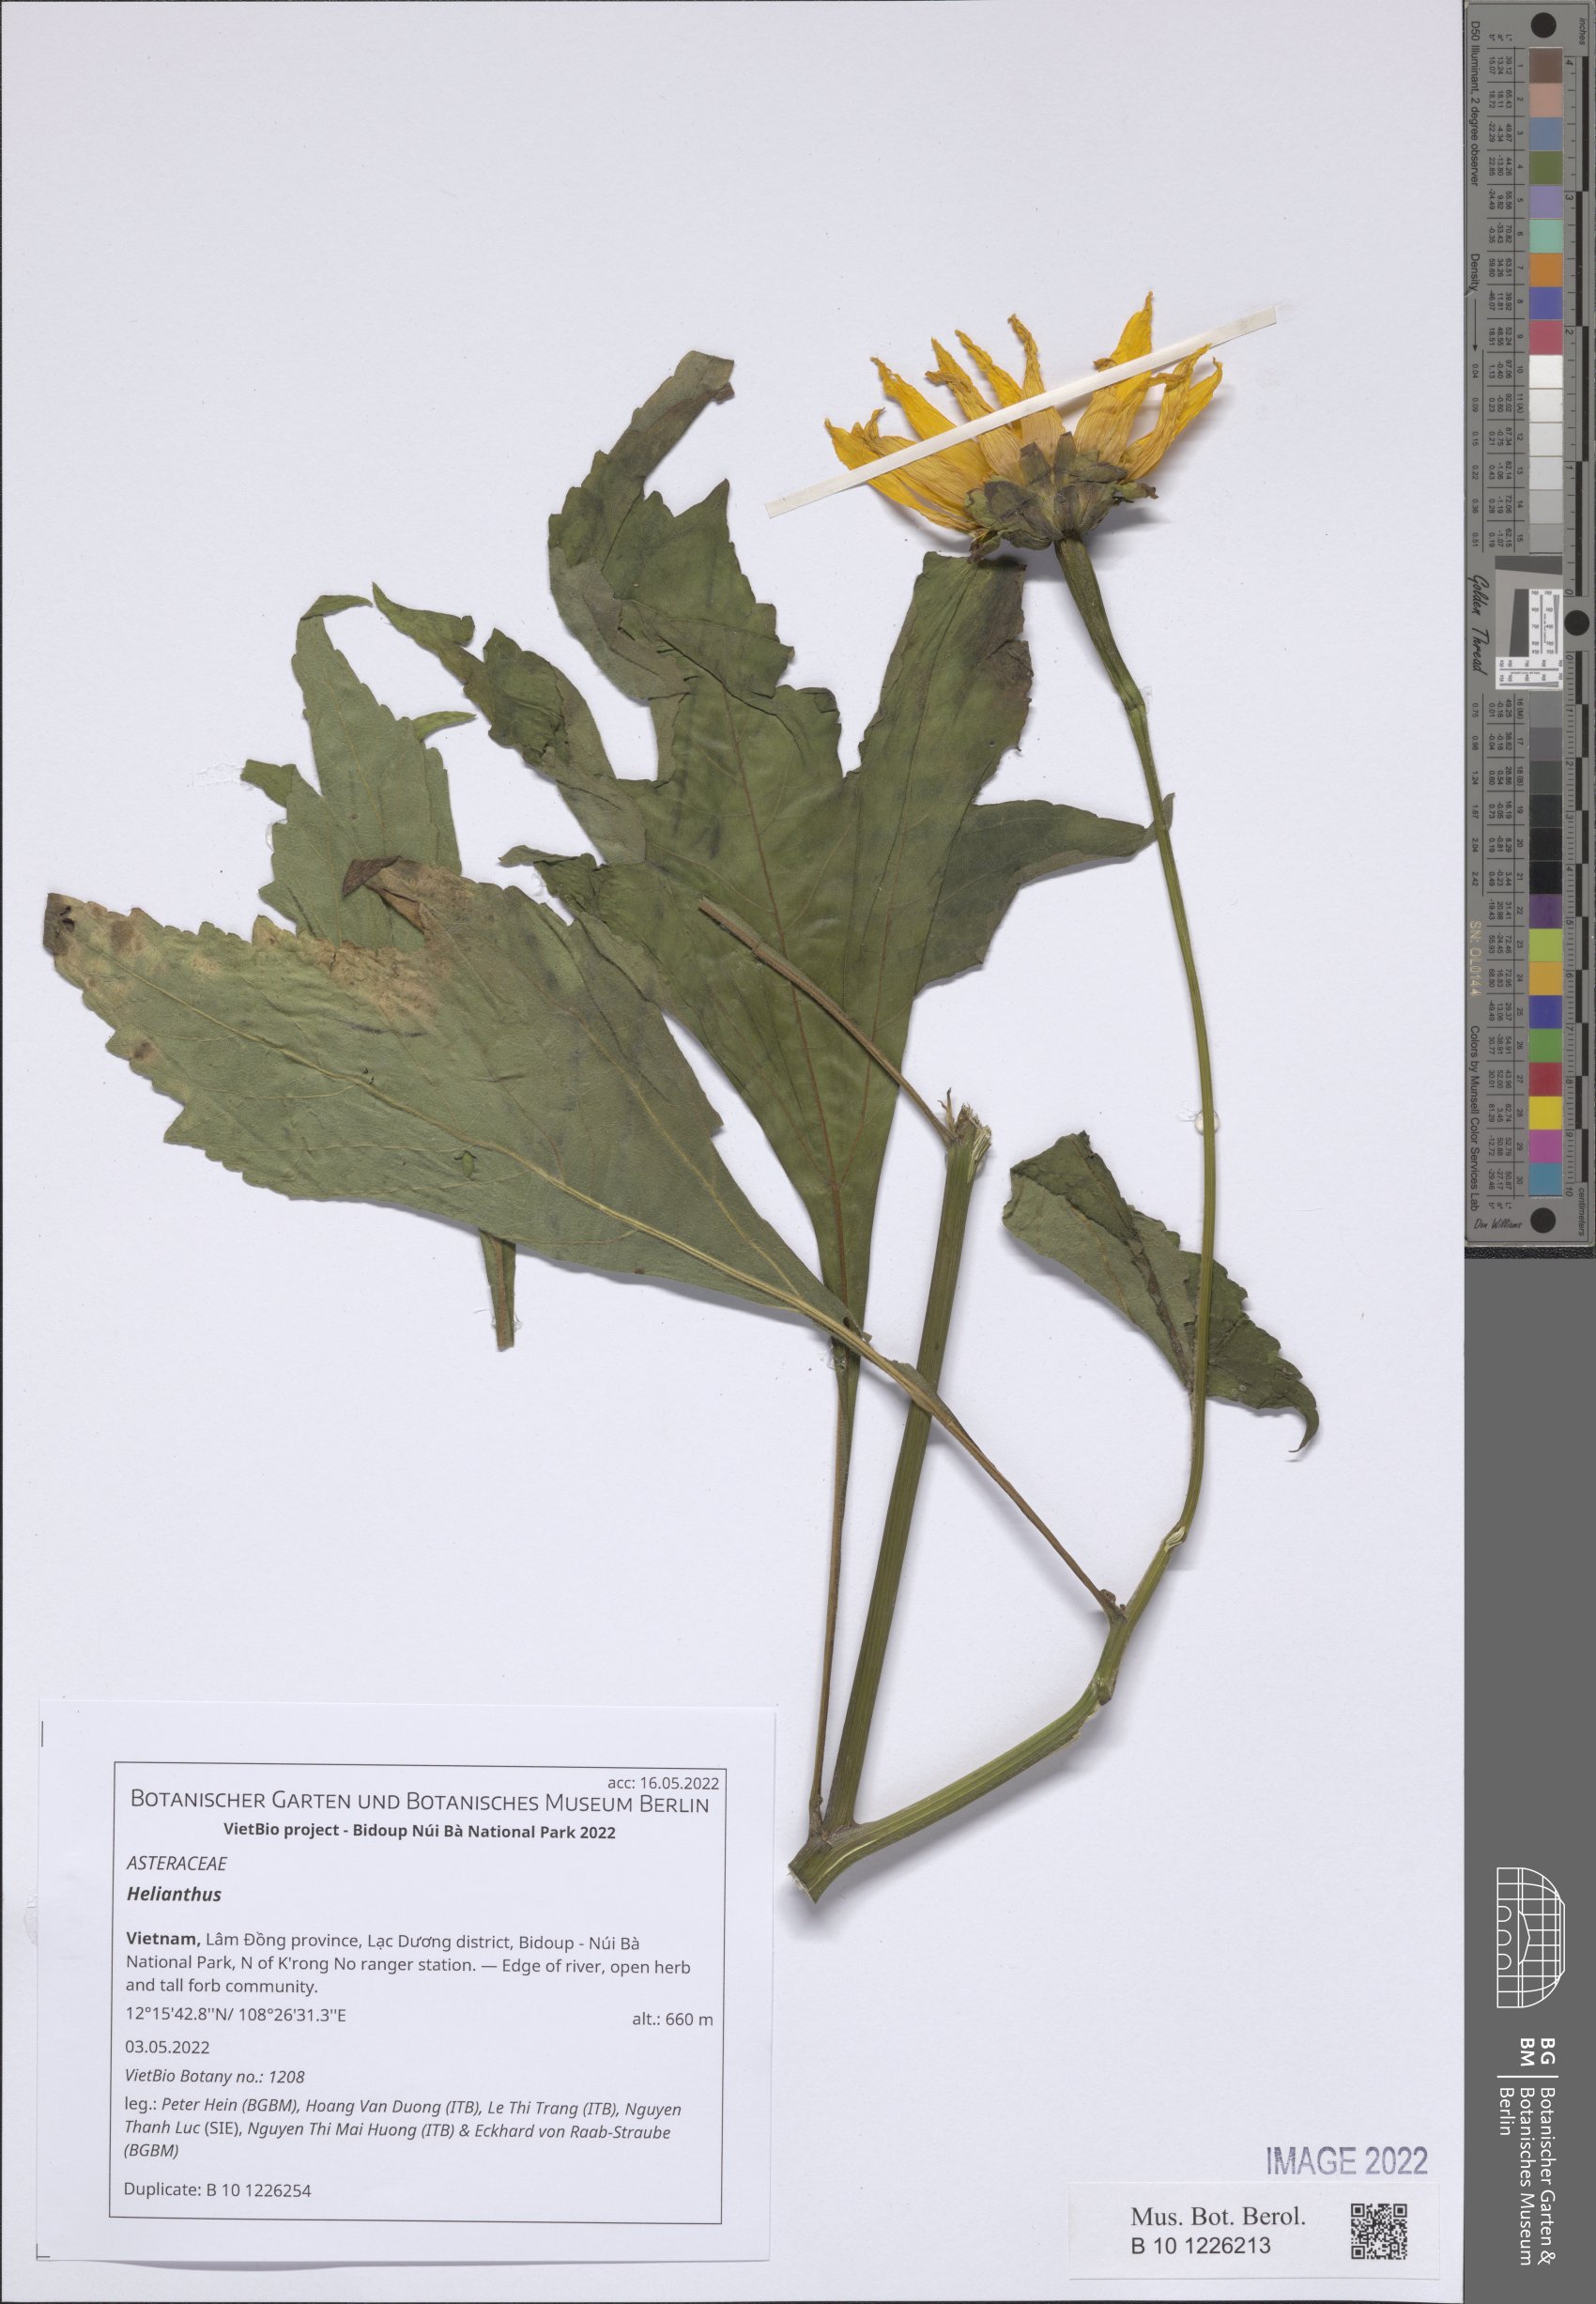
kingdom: Plantae
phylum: Tracheophyta
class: Magnoliopsida
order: Asterales
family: Asteraceae
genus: Helianthus
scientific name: Helianthus
